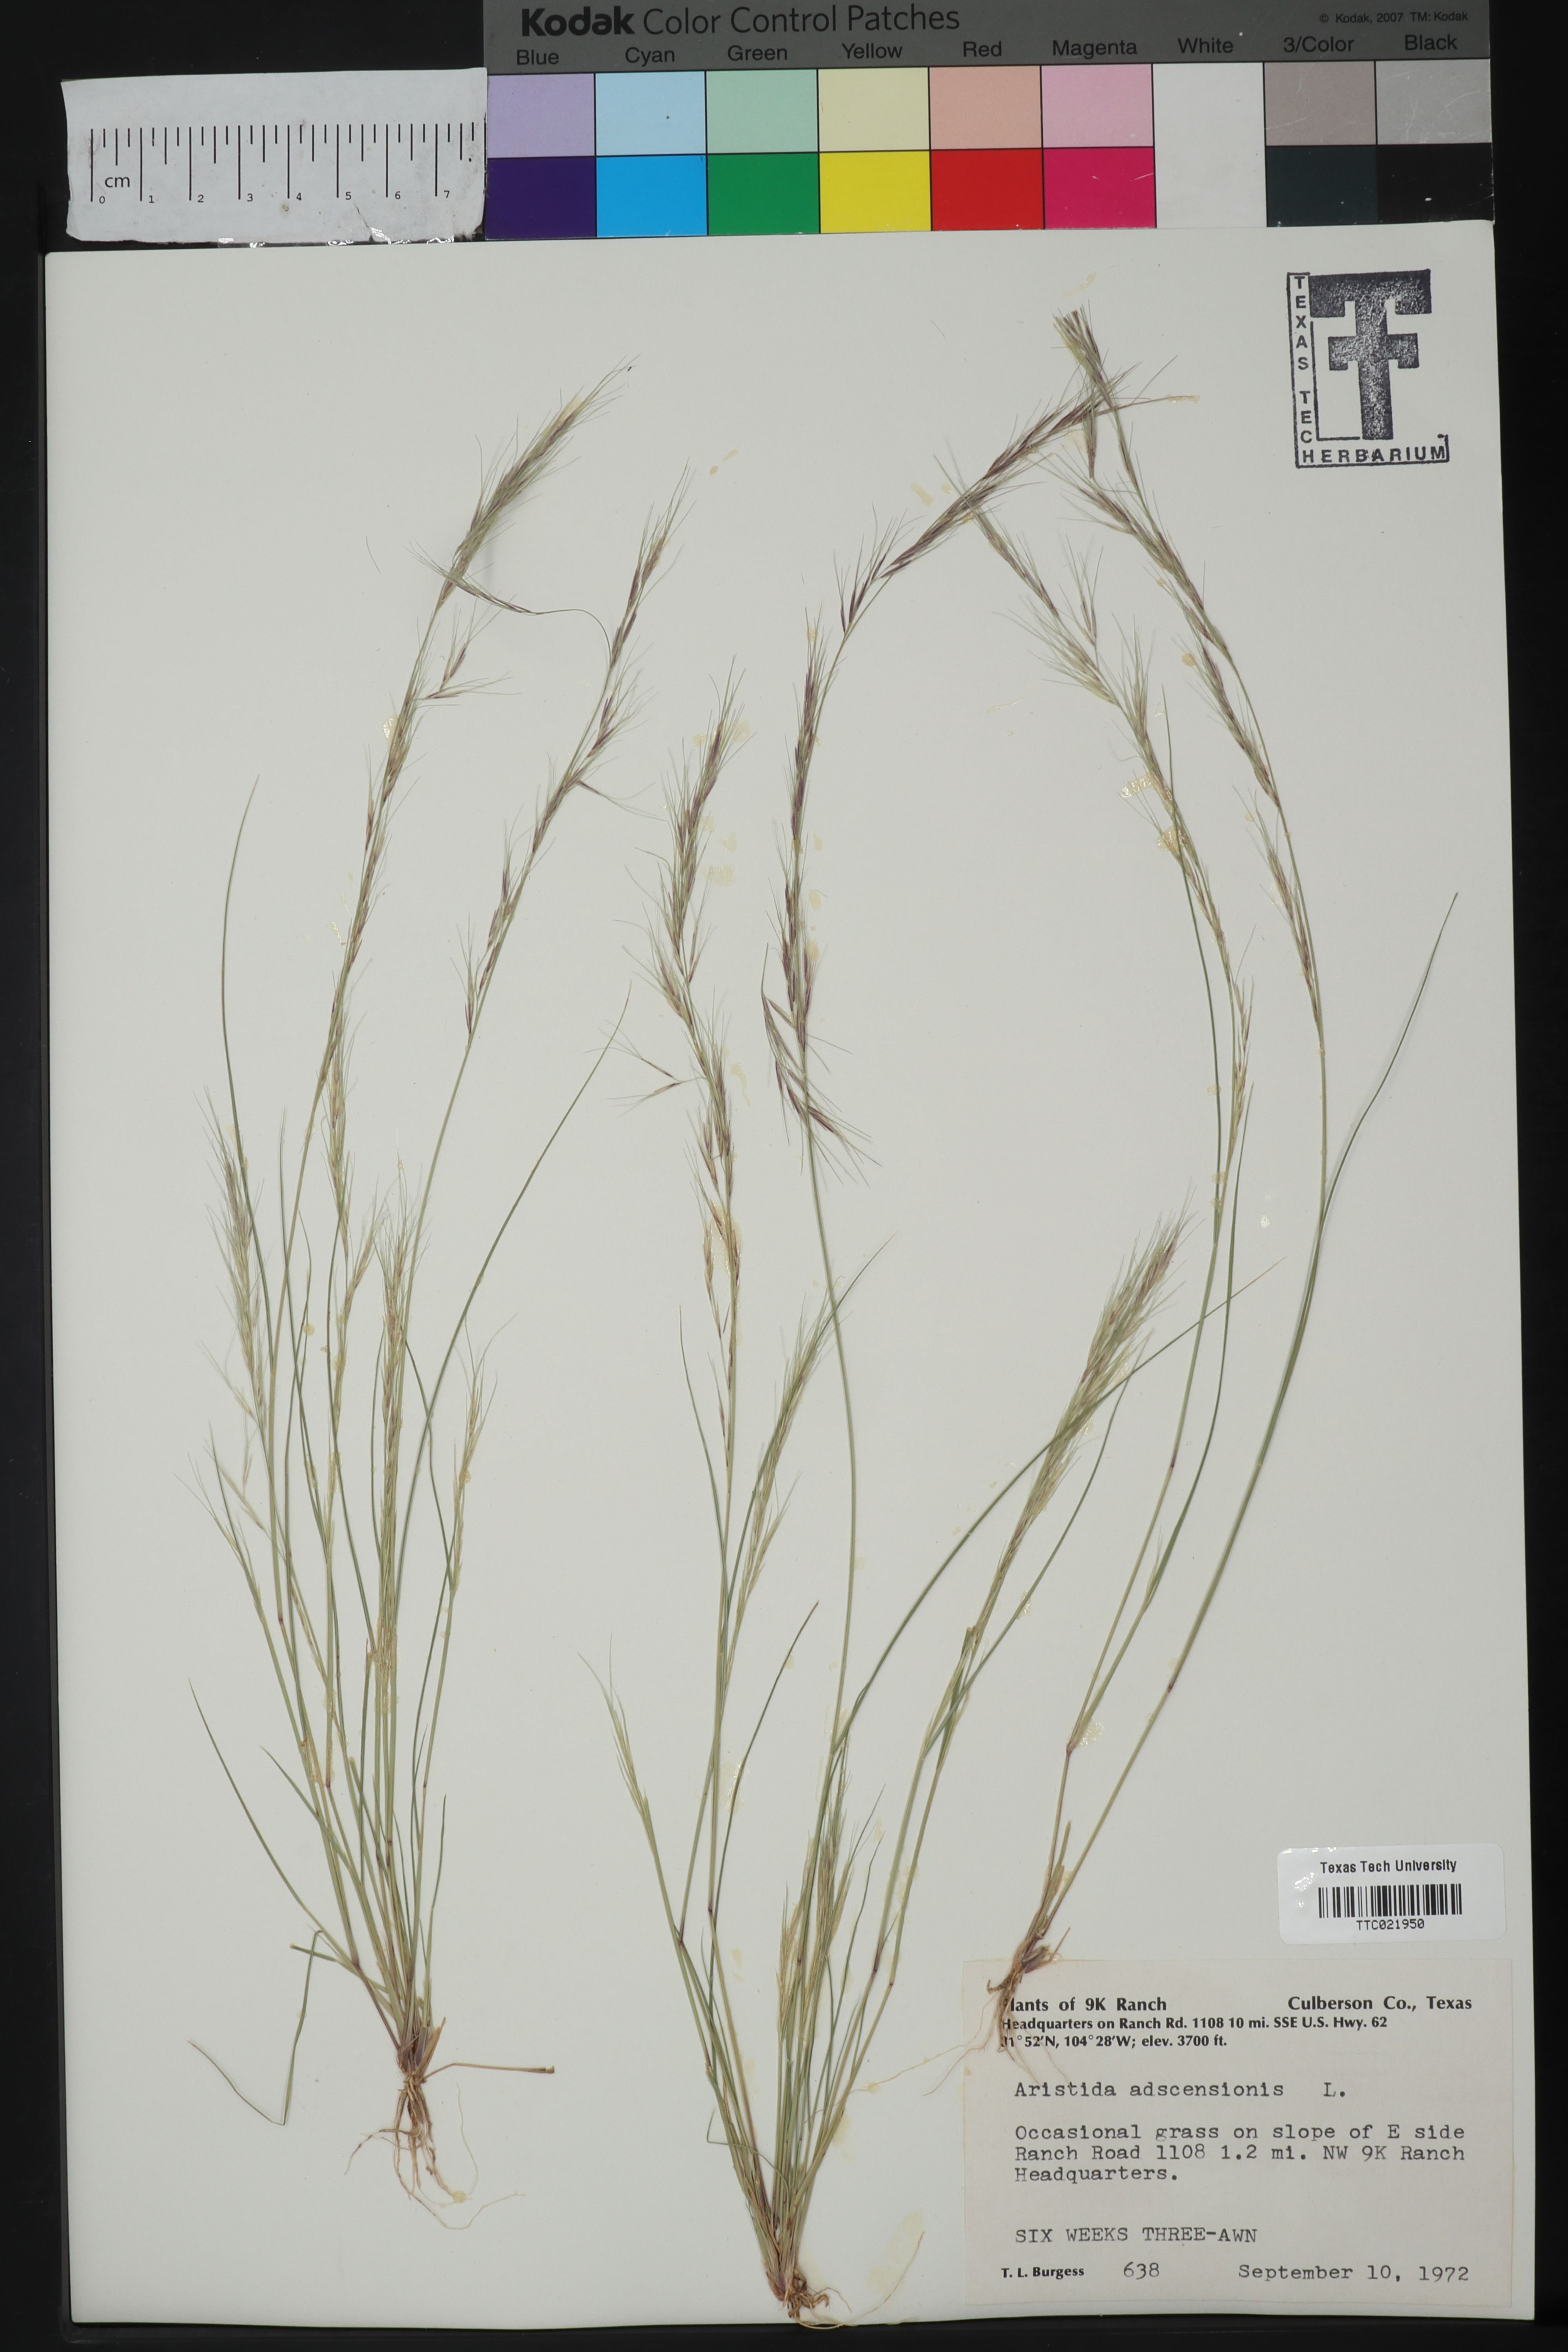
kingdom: Plantae
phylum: Tracheophyta
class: Liliopsida
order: Poales
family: Poaceae
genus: Aristida
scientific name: Aristida adscensionis
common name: Sixweeks threeawn
